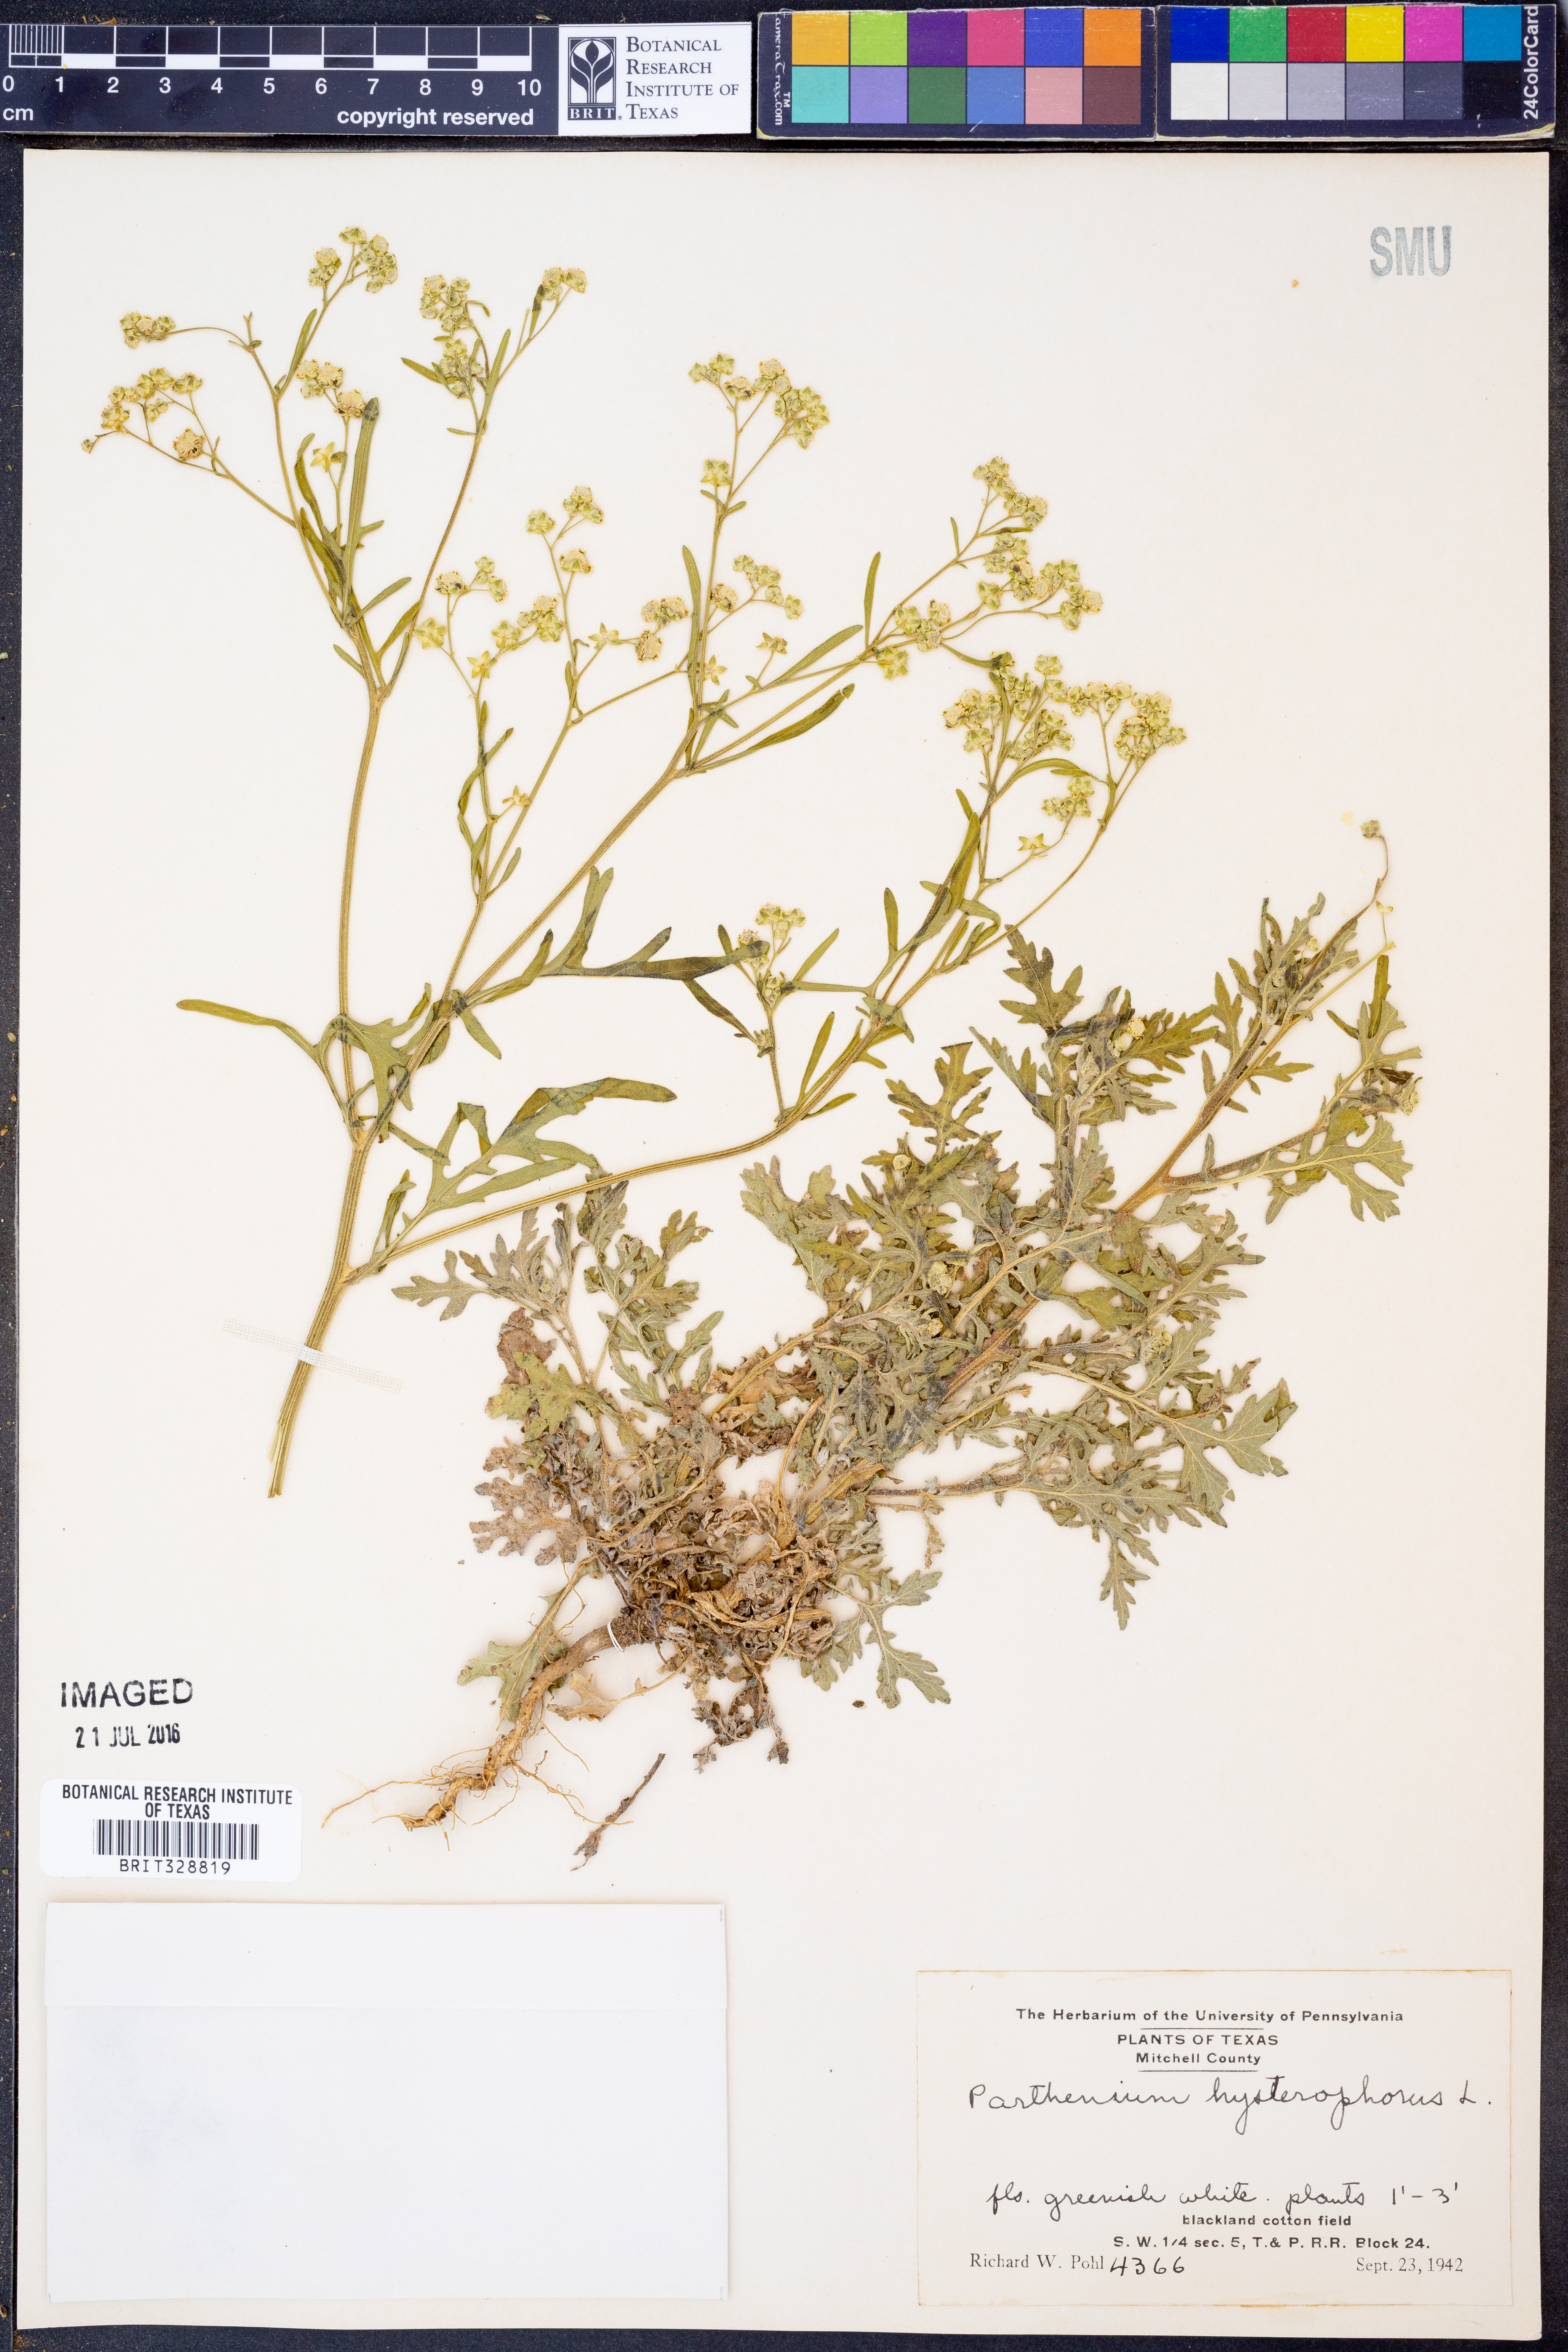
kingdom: Plantae
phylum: Tracheophyta
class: Magnoliopsida
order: Asterales
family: Asteraceae
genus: Parthenium
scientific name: Parthenium hysterophorus
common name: Santa maria feverfew
